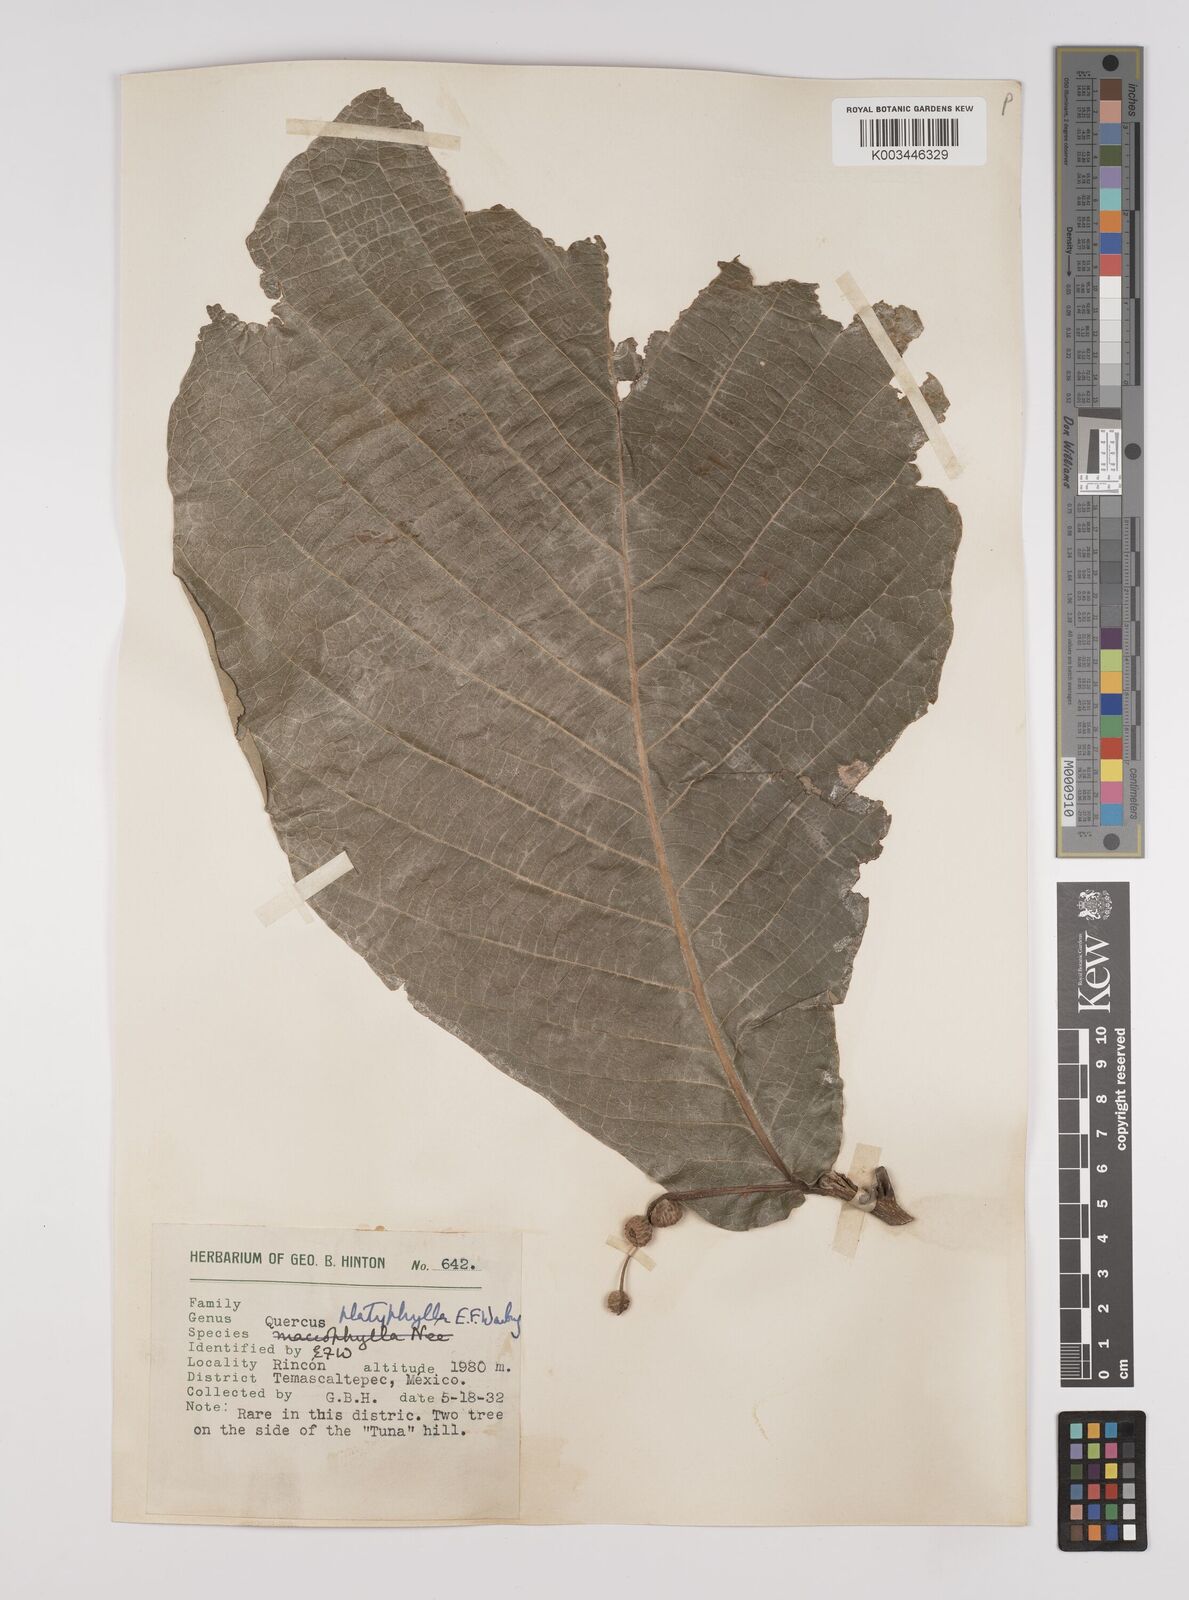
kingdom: Plantae
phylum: Tracheophyta
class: Magnoliopsida
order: Fagales
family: Fagaceae
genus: Quercus
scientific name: Quercus
